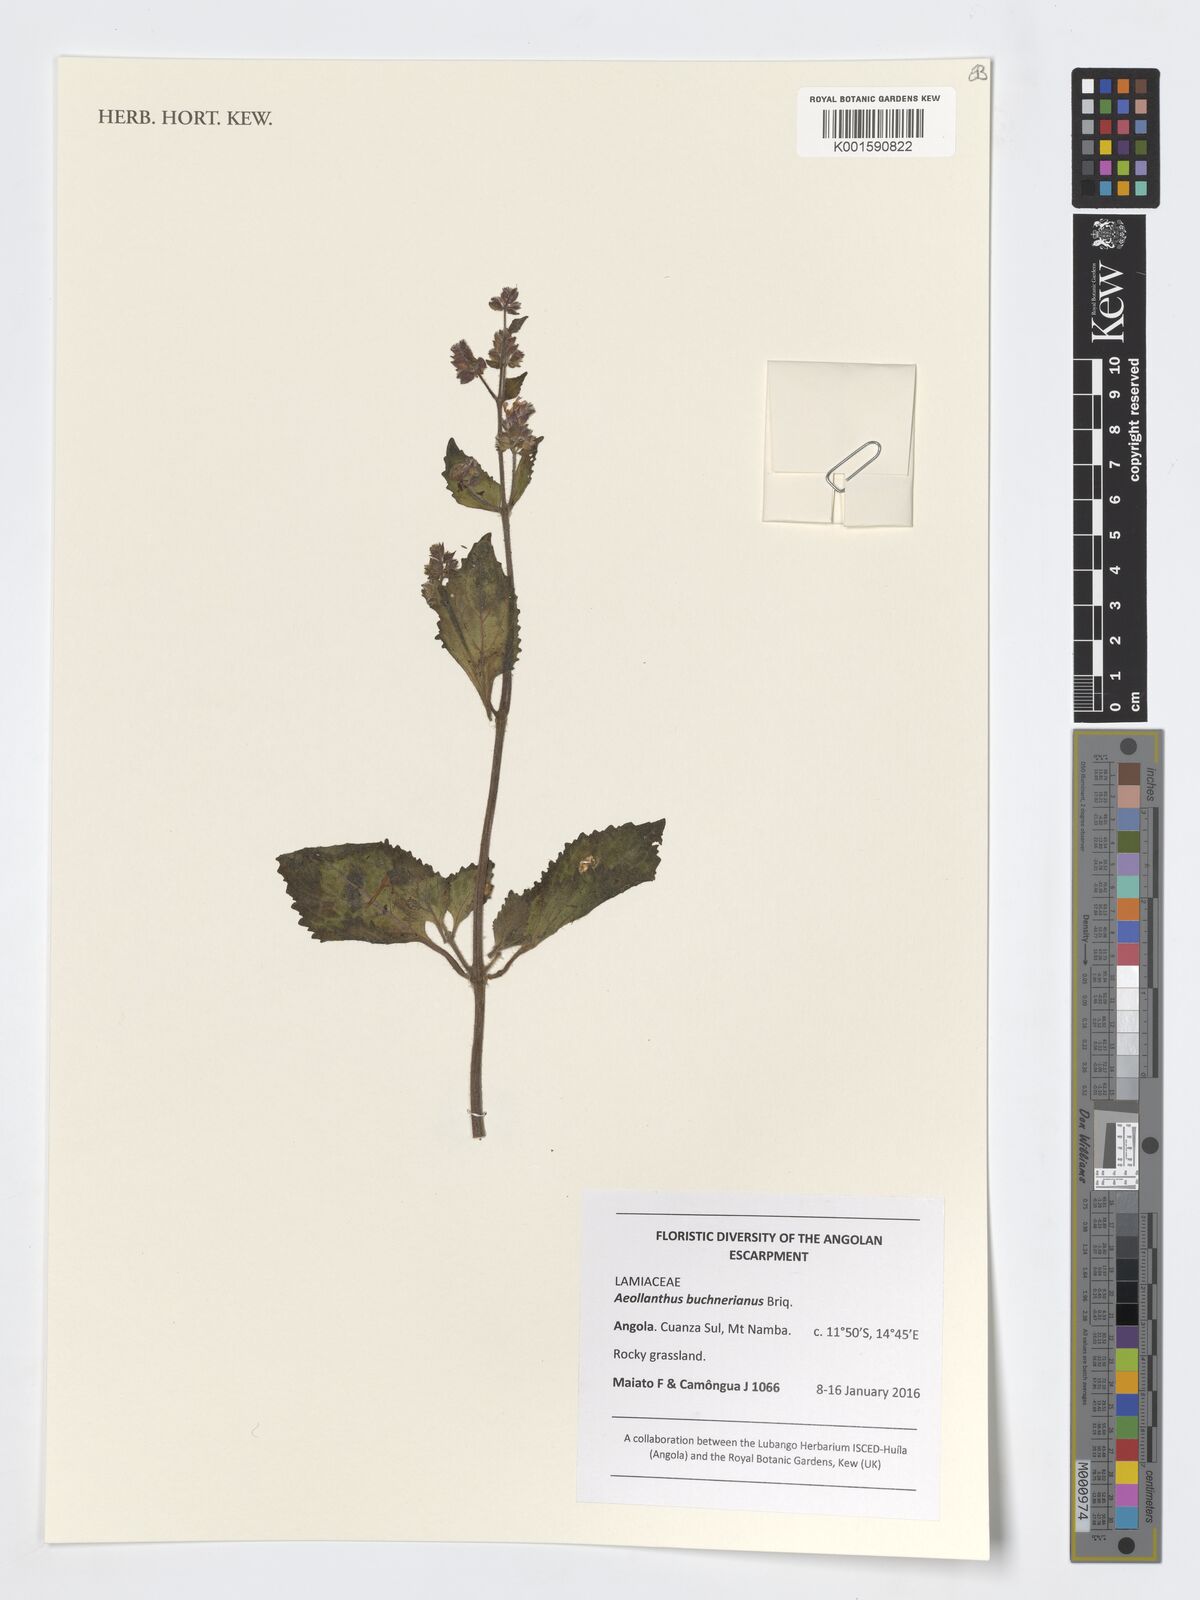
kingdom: Plantae
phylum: Tracheophyta
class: Magnoliopsida
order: Lamiales
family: Lamiaceae
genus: Aeollanthus
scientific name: Aeollanthus buchnerianus
